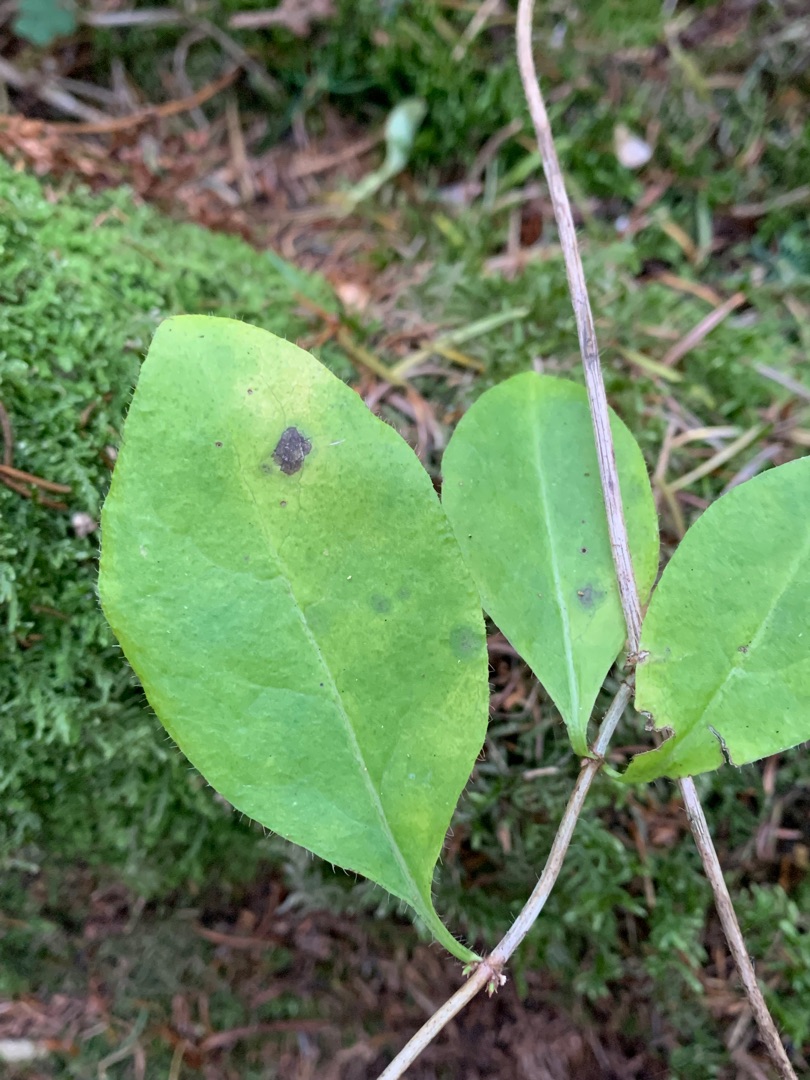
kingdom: Plantae
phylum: Tracheophyta
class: Magnoliopsida
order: Dipsacales
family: Caprifoliaceae
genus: Lonicera
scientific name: Lonicera periclymenum
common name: Almindelig gedeblad
